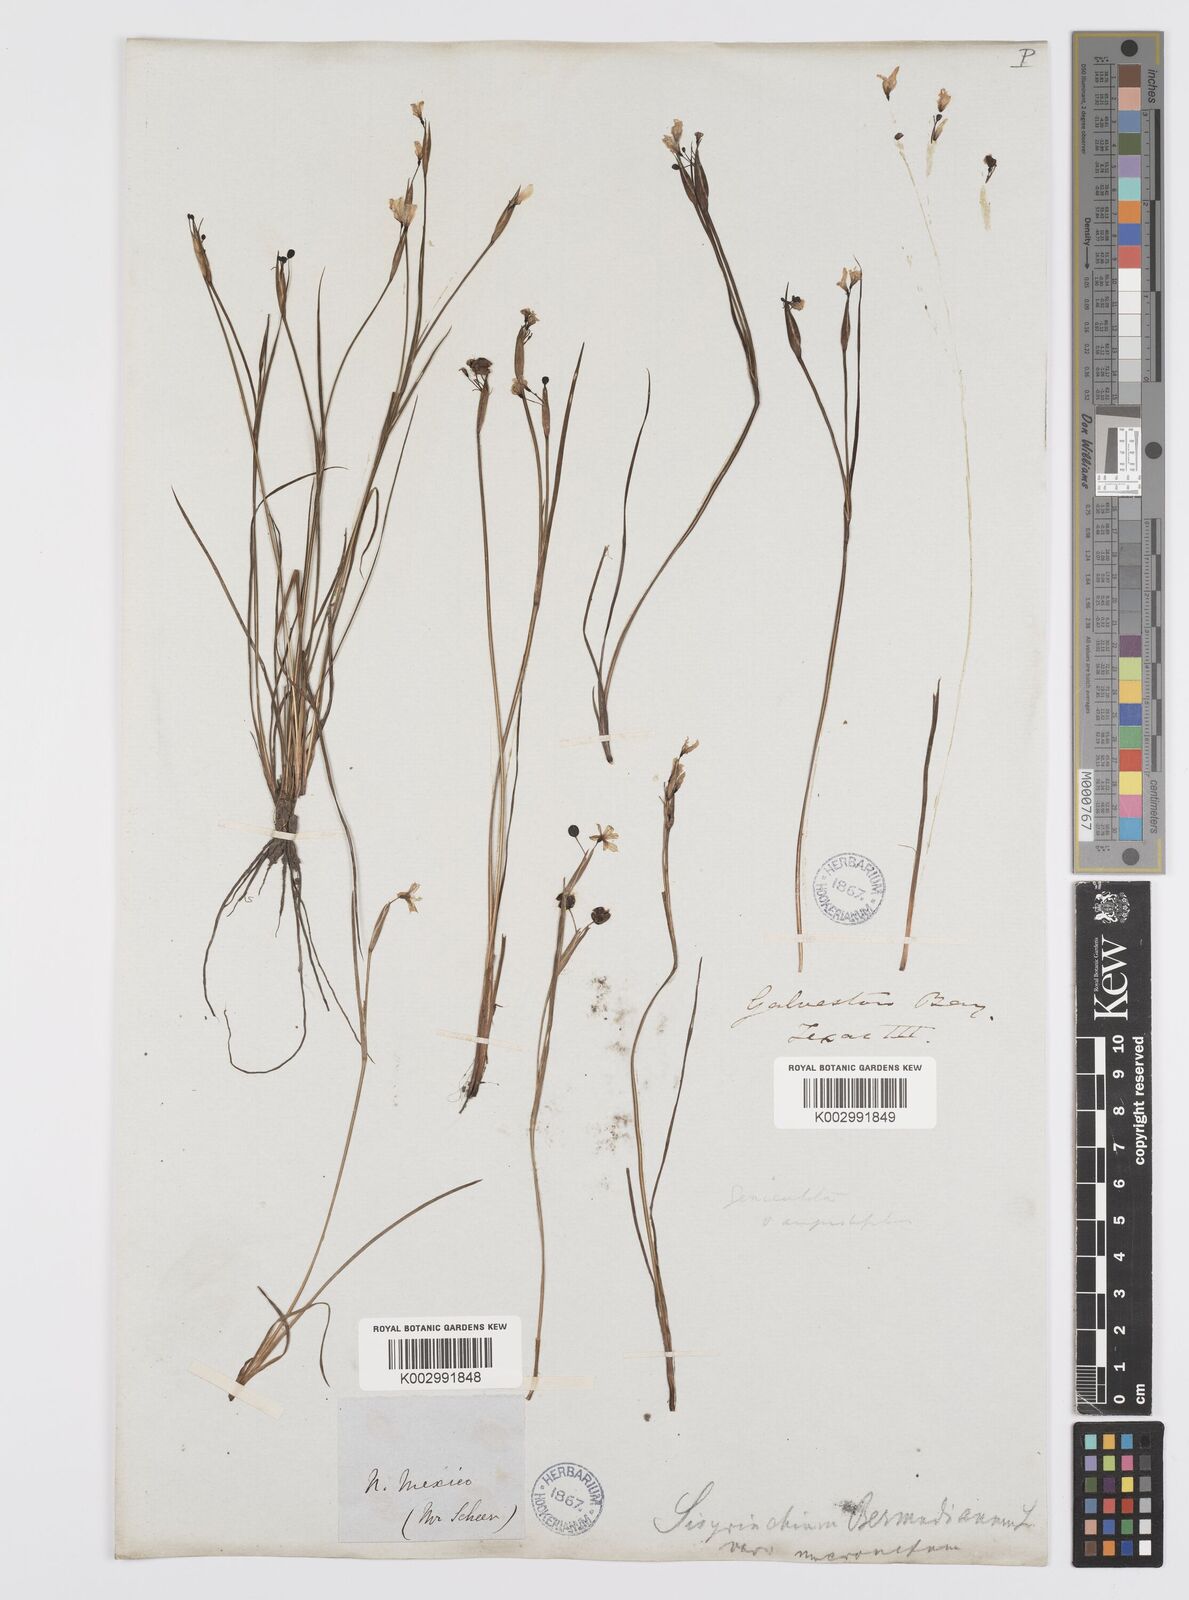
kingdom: Plantae
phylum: Tracheophyta
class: Liliopsida
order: Asparagales
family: Iridaceae
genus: Sisyrinchium
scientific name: Sisyrinchium bermudiana
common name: Blue-eyed-grass
